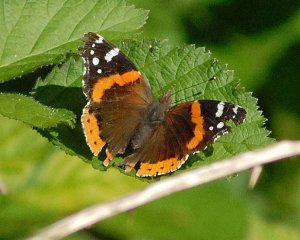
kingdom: Animalia
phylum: Arthropoda
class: Insecta
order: Lepidoptera
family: Nymphalidae
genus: Vanessa
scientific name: Vanessa atalanta
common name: Red Admiral
